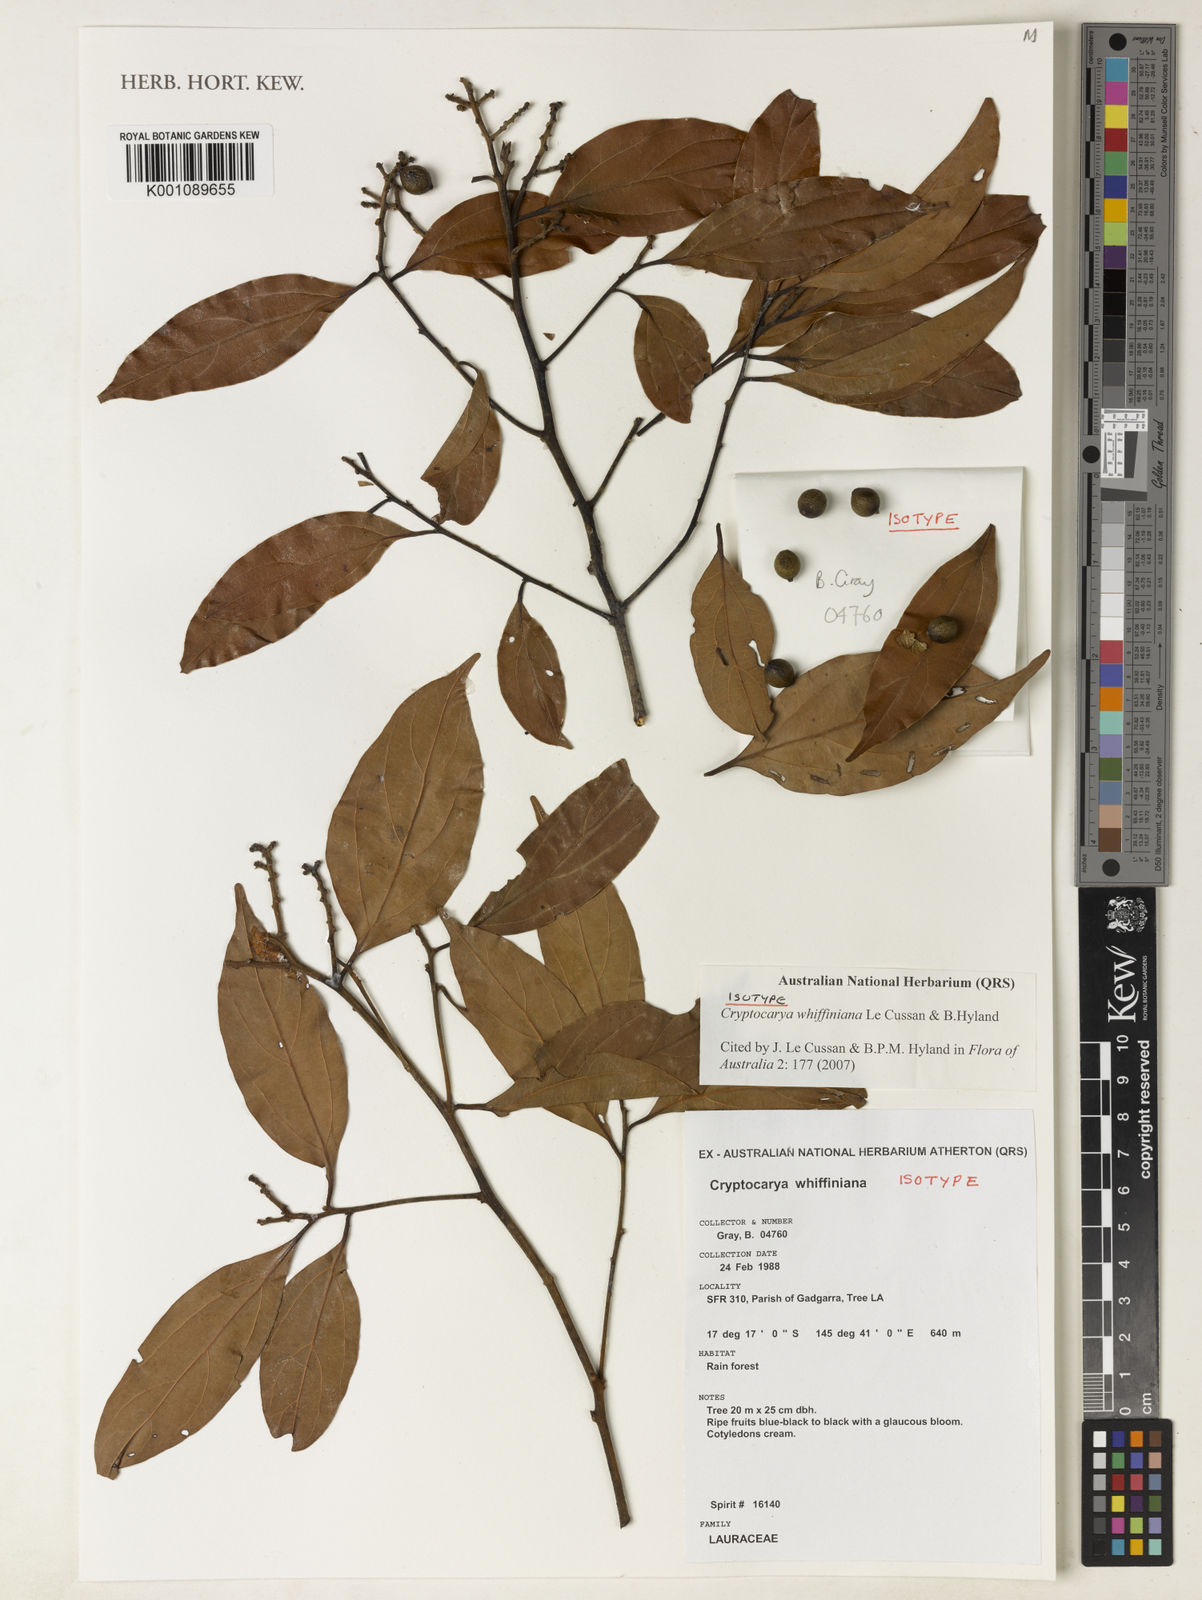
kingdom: Plantae
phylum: Tracheophyta
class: Magnoliopsida
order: Laurales
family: Lauraceae
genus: Cryptocarya
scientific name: Cryptocarya whiffiniana
